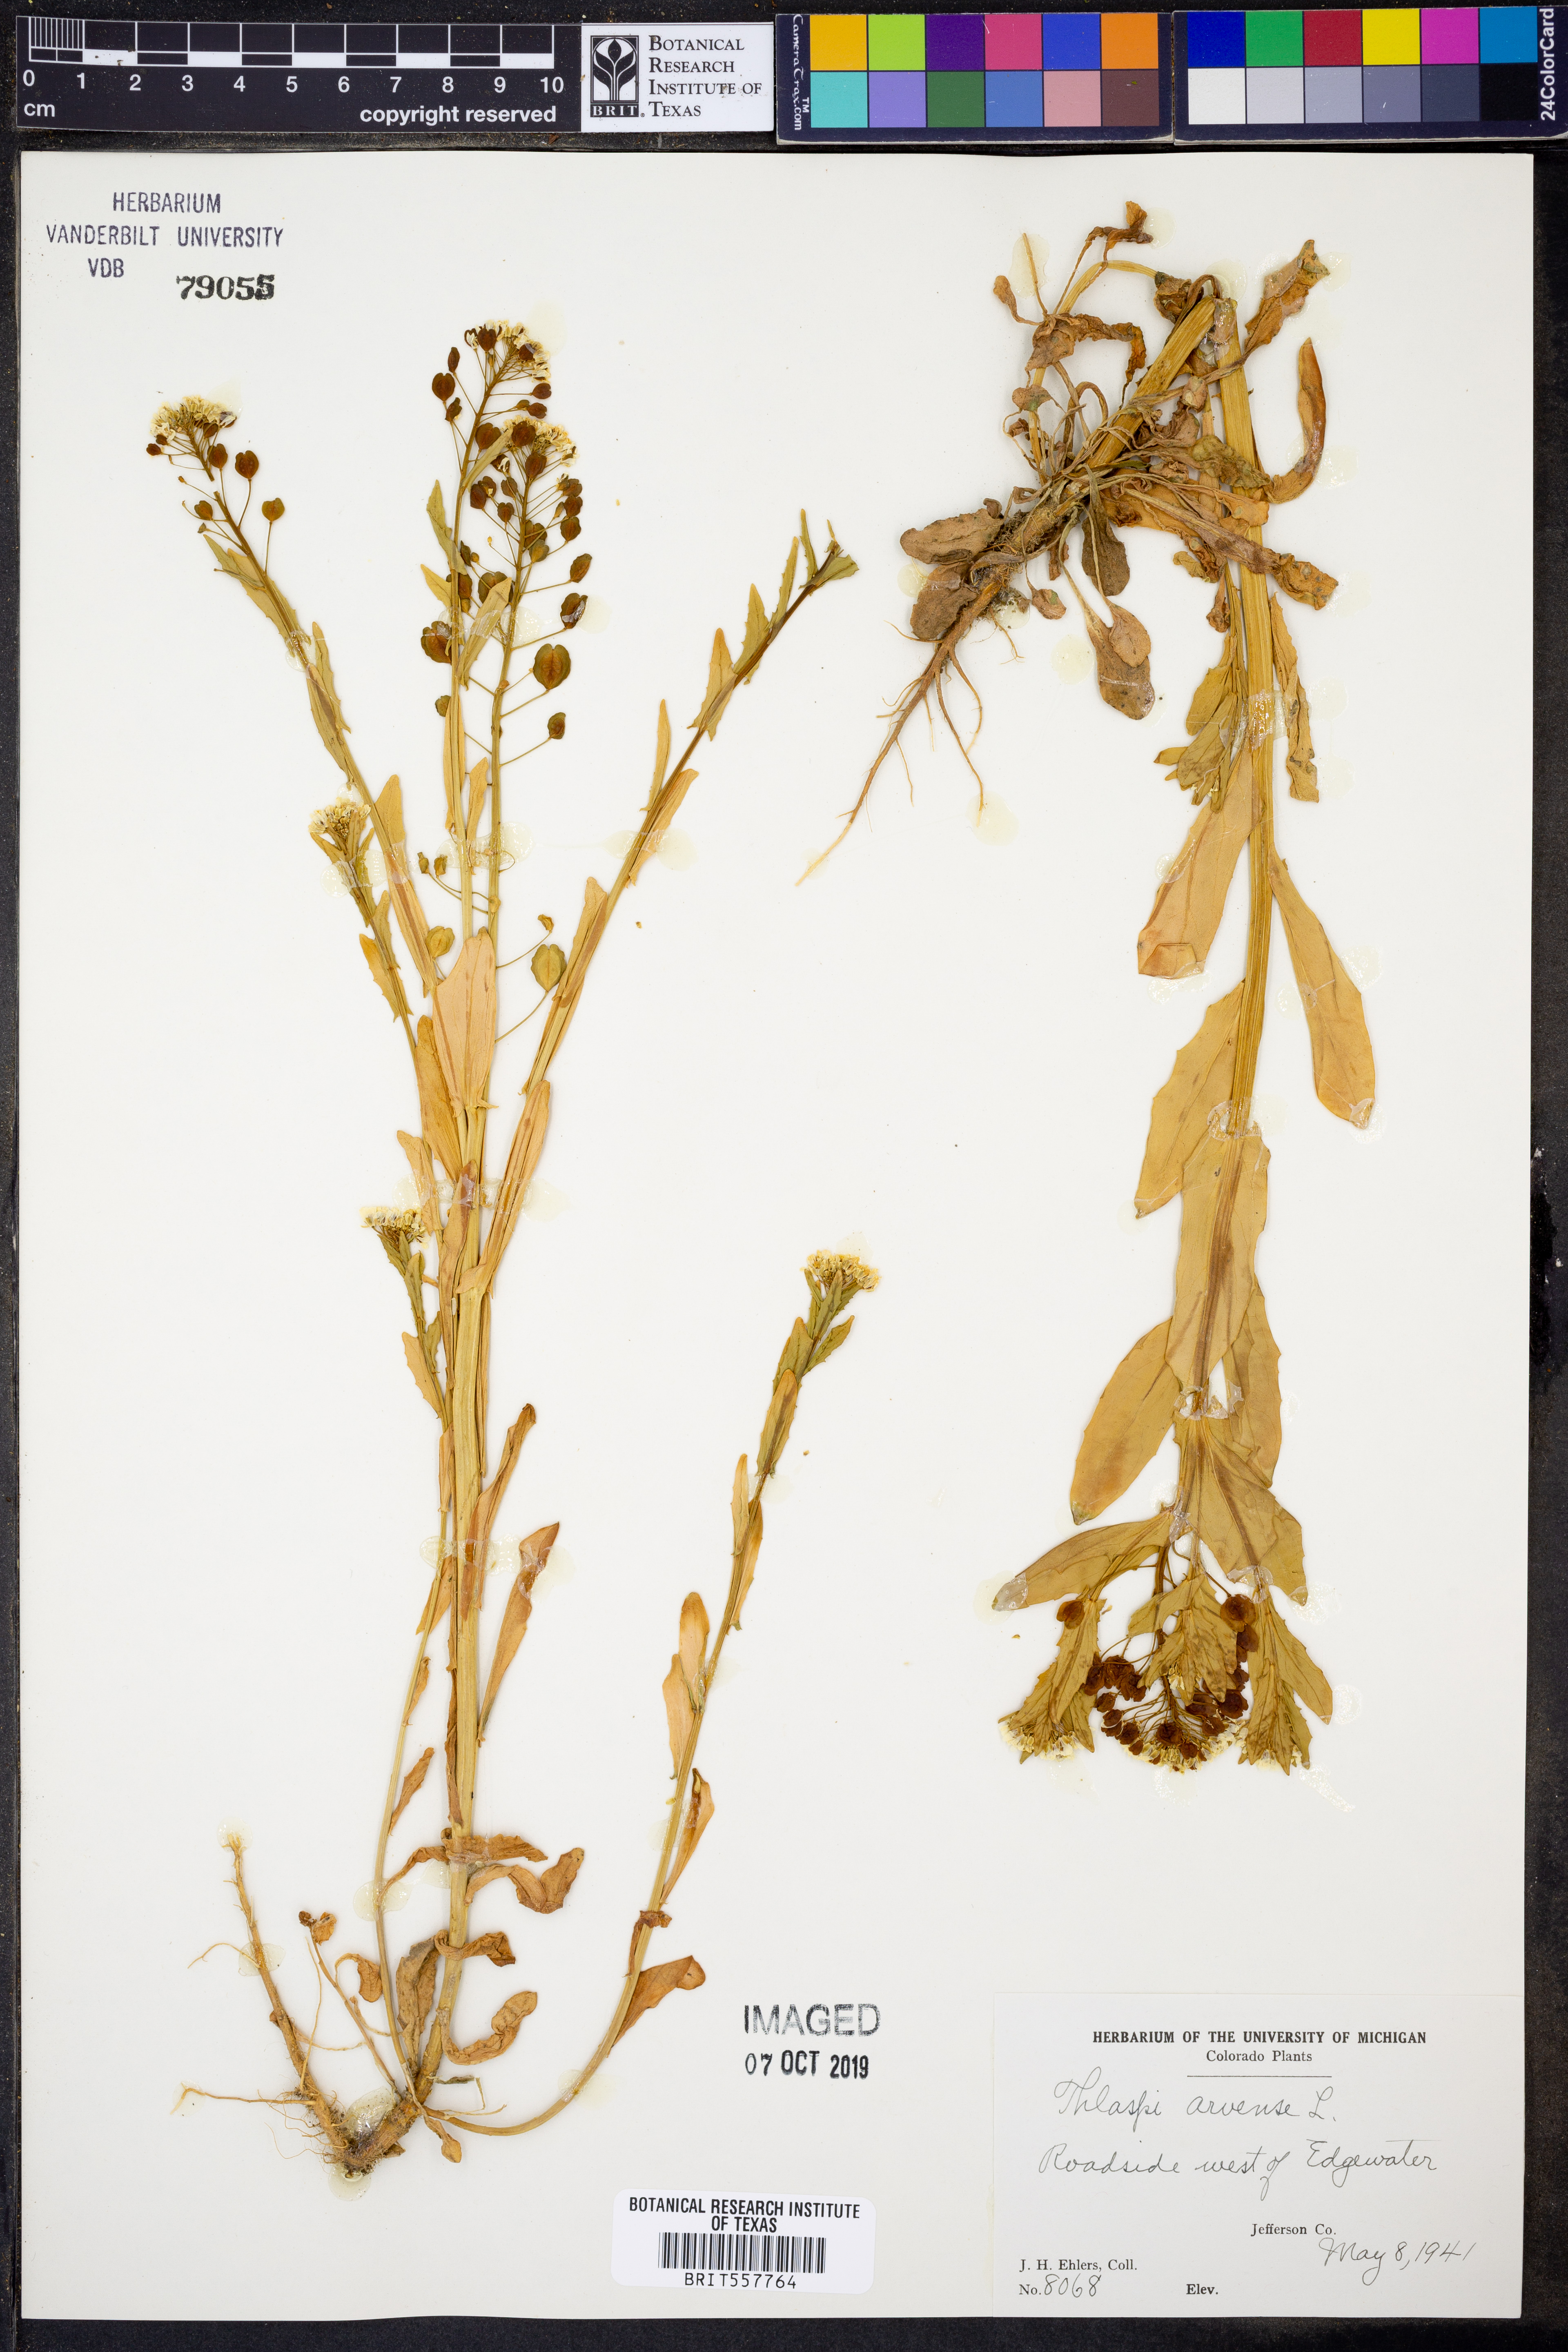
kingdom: Plantae
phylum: Tracheophyta
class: Magnoliopsida
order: Brassicales
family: Brassicaceae
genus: Thlaspi
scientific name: Thlaspi arvense
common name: Field pennycress
